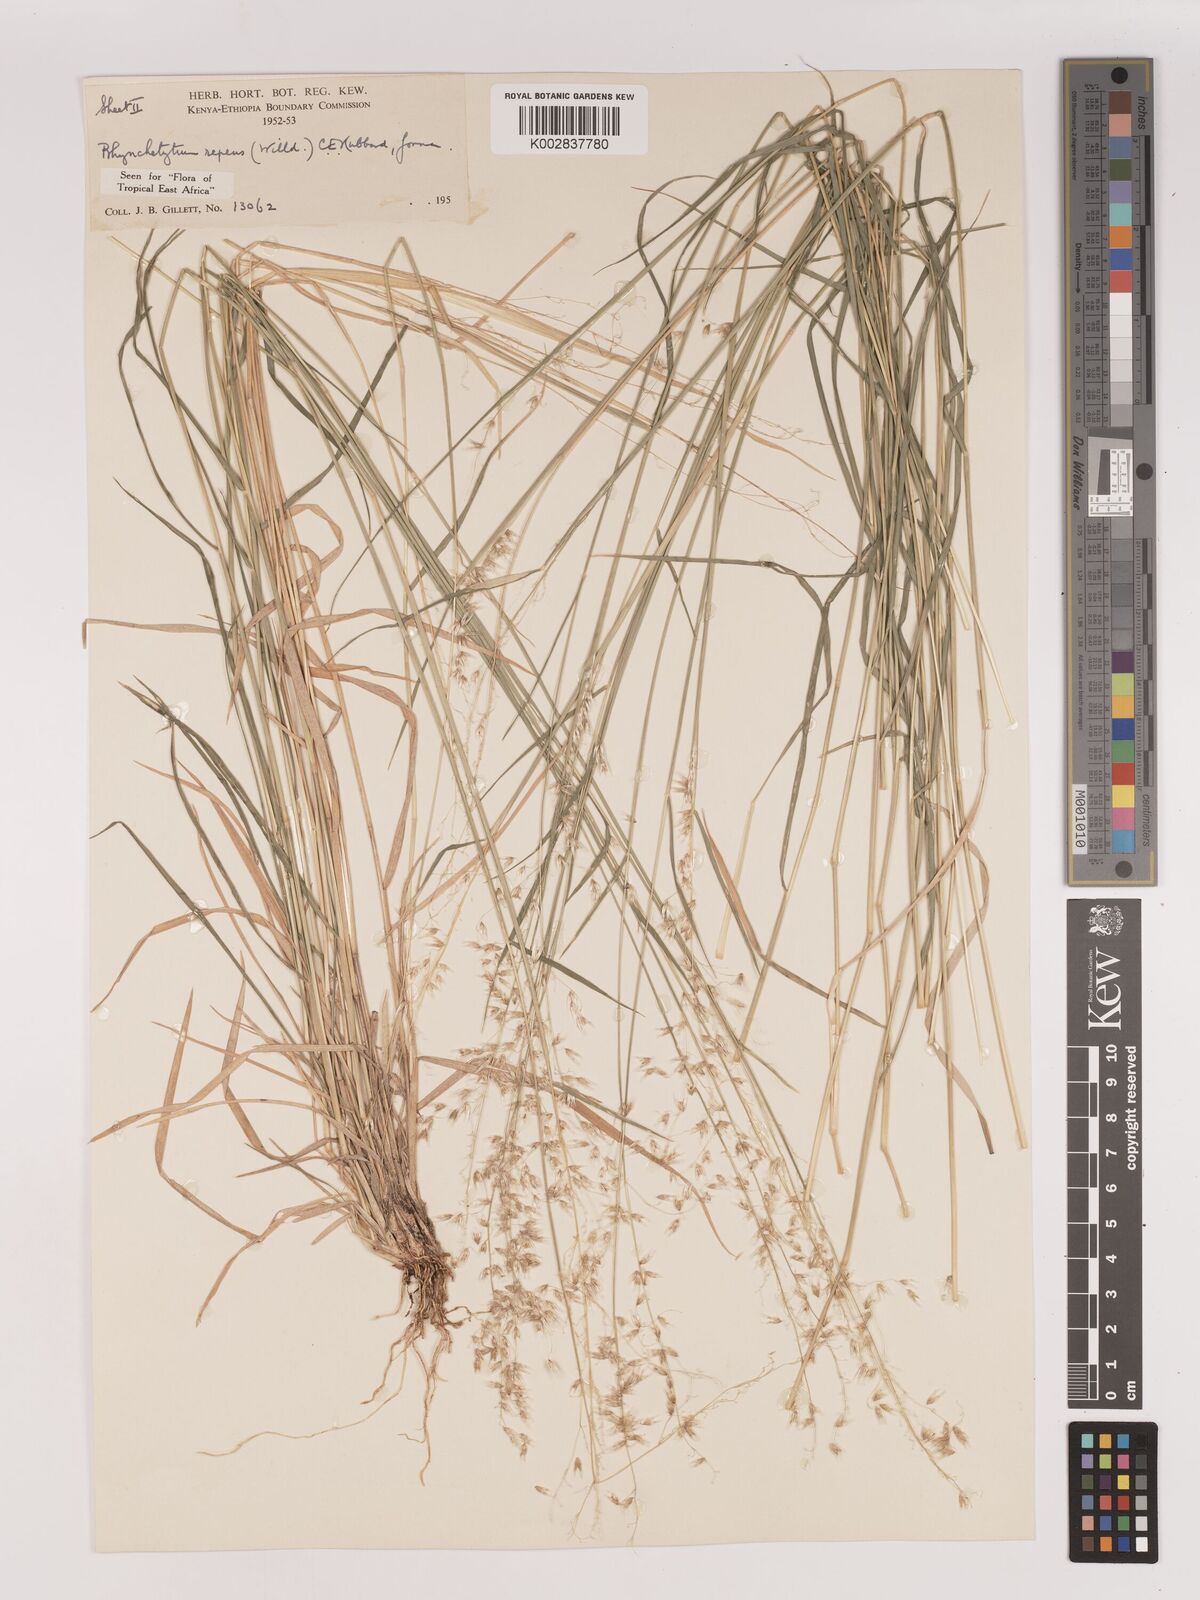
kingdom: Plantae
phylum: Tracheophyta
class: Liliopsida
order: Poales
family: Poaceae
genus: Melinis
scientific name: Melinis repens
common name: Rose natal grass
